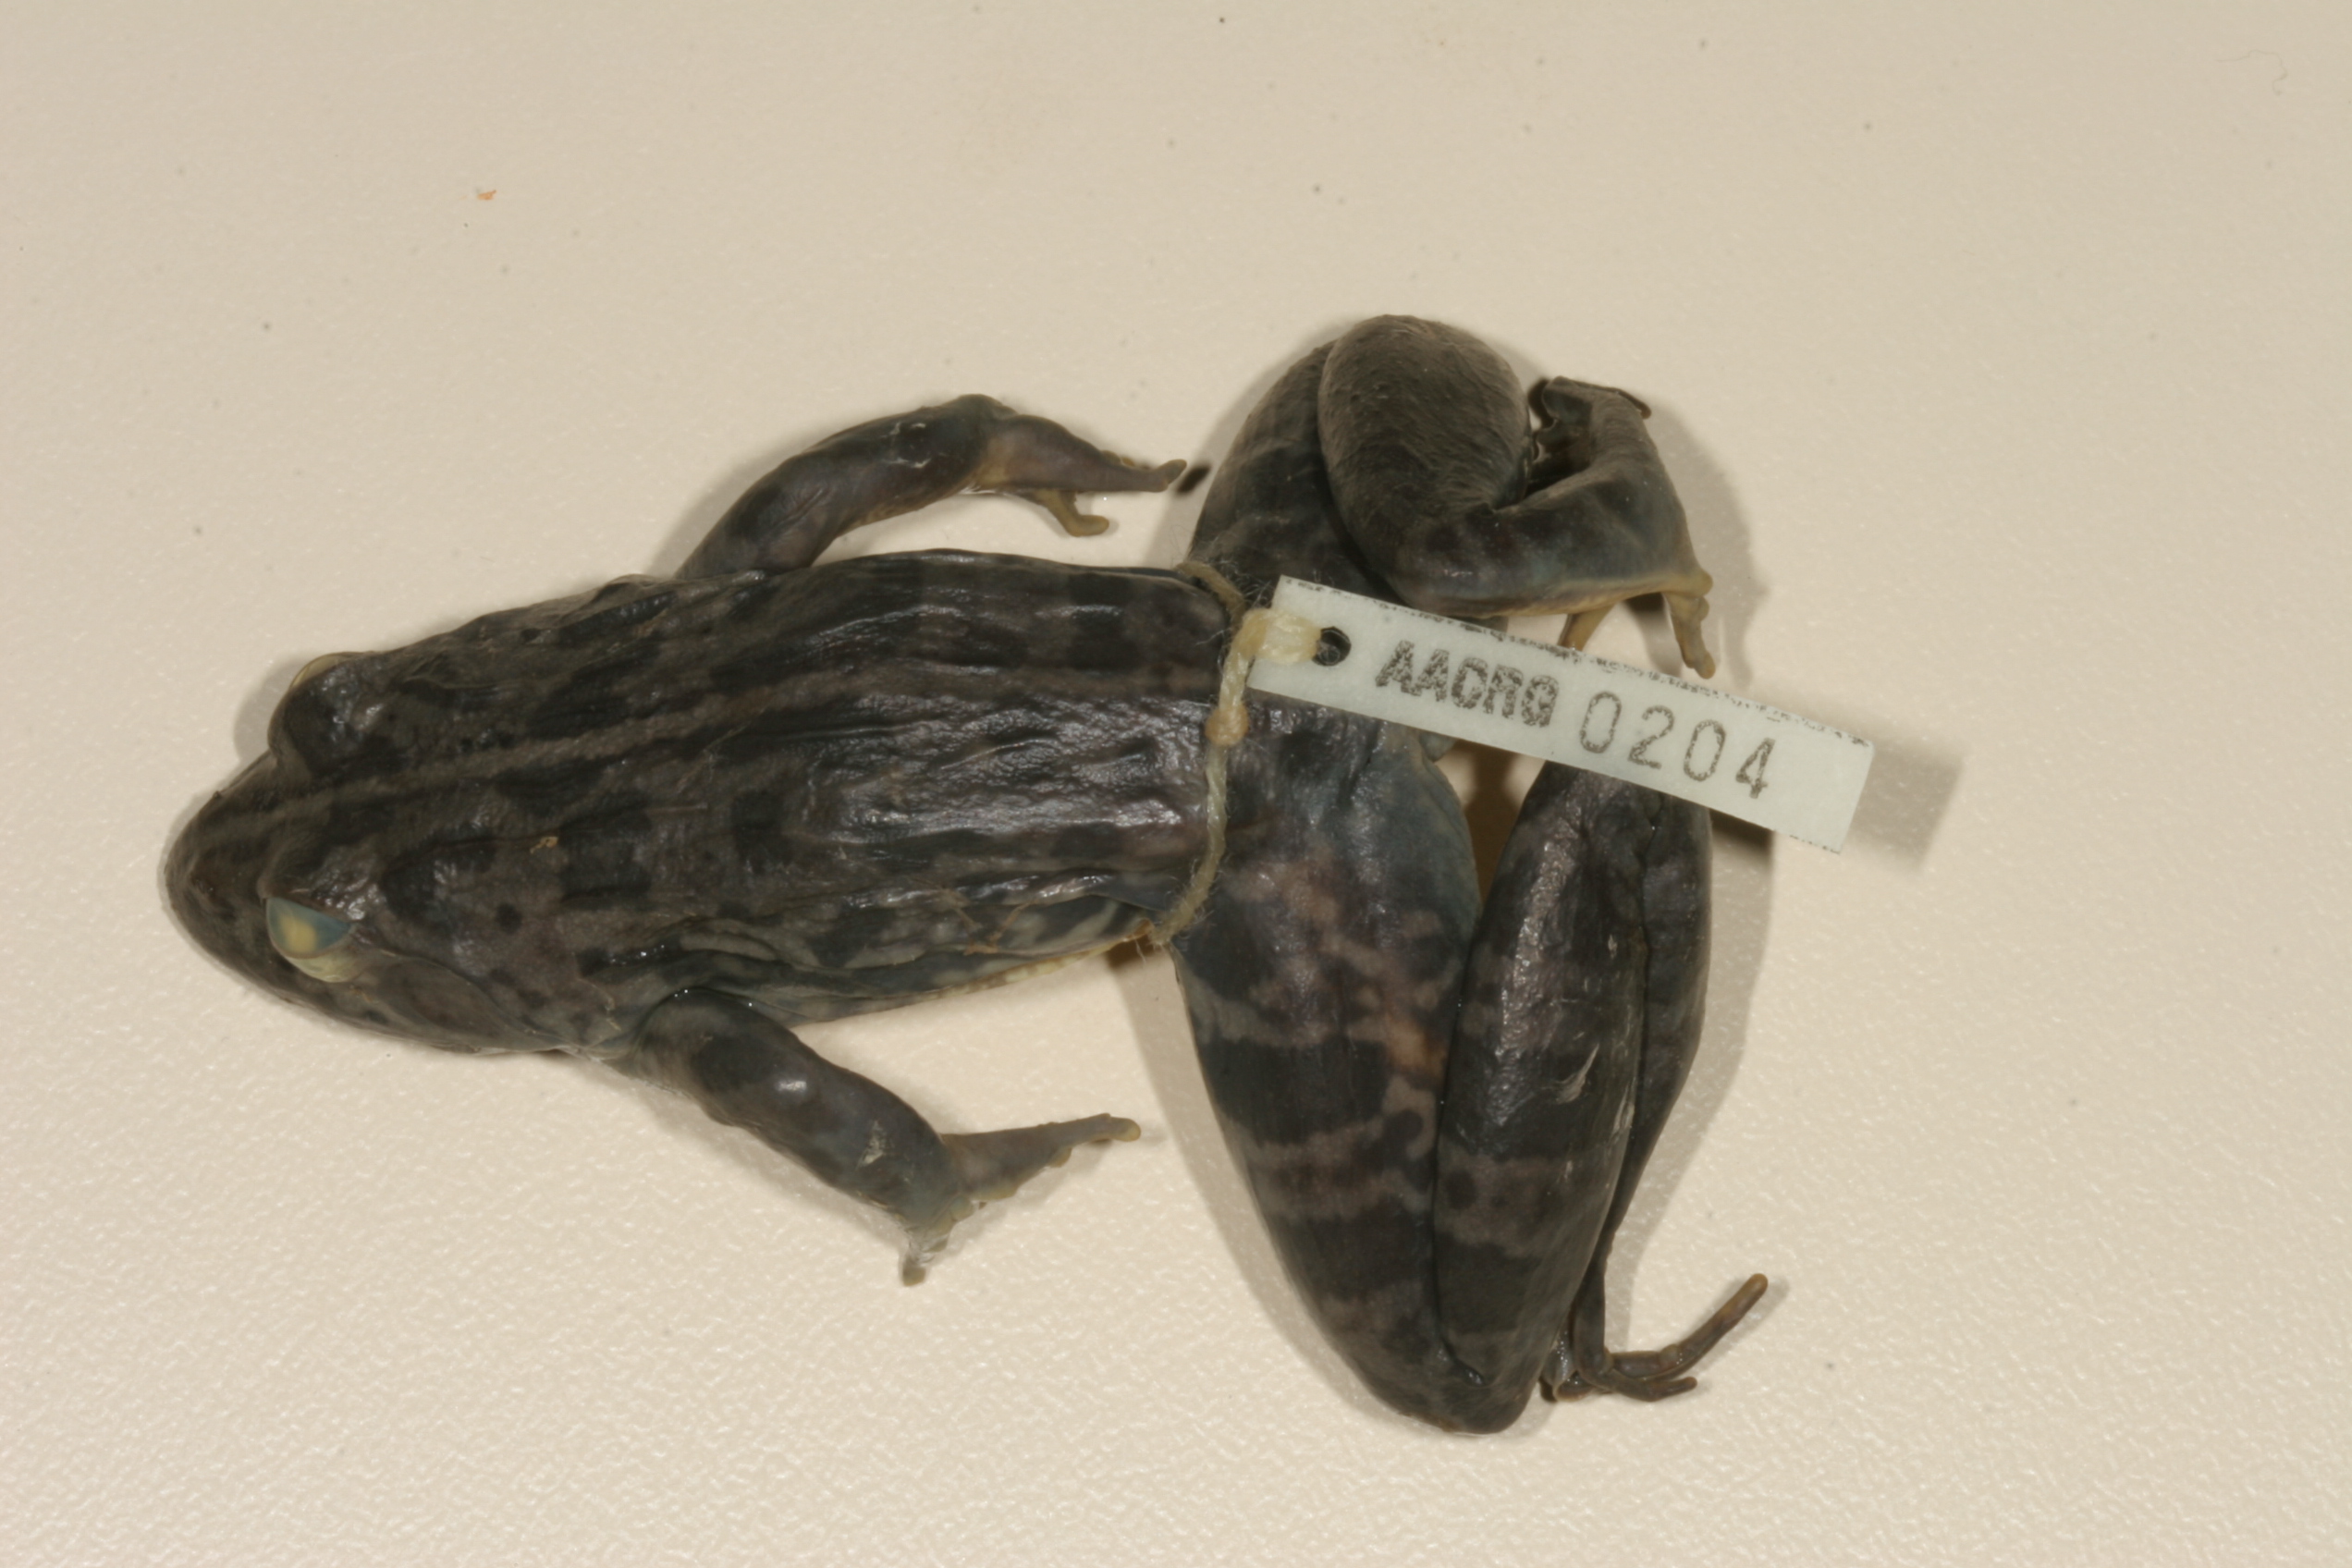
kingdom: Animalia
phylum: Chordata
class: Amphibia
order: Anura
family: Pyxicephalidae
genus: Amietia
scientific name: Amietia delalandii
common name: Delalande's river frog
